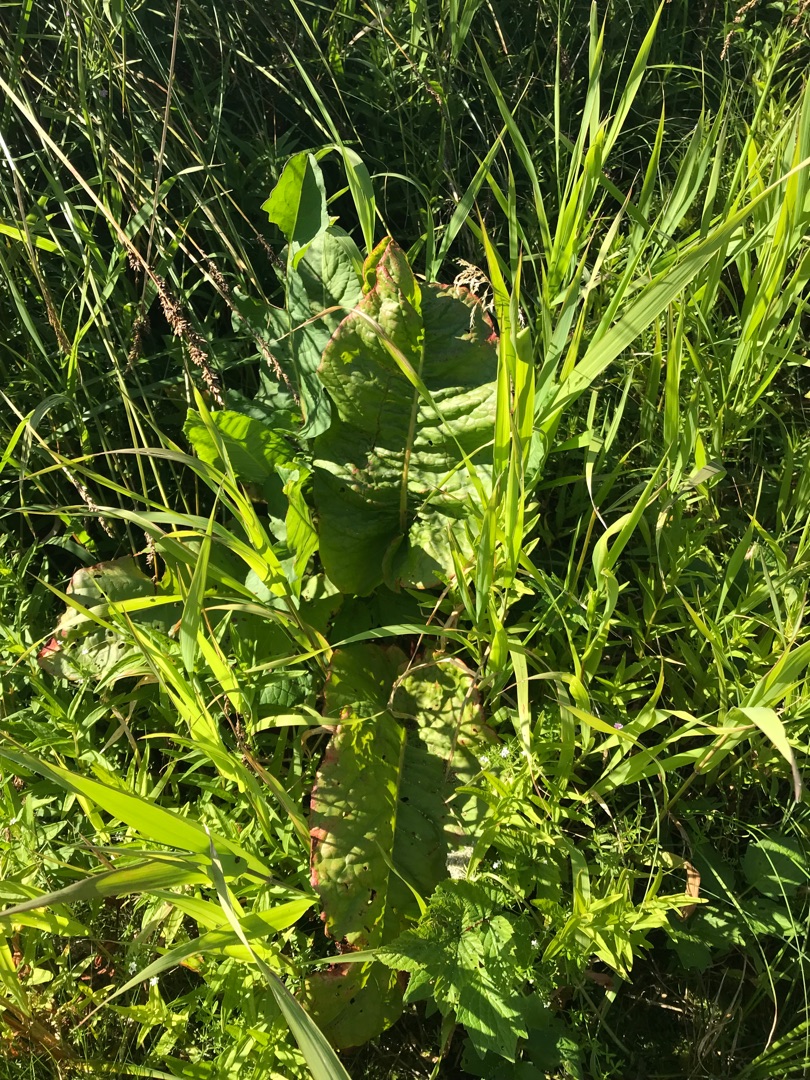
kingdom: Plantae
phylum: Tracheophyta
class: Magnoliopsida
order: Caryophyllales
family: Polygonaceae
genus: Rumex
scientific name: Rumex aquaticus
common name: Dynd-skræppe
